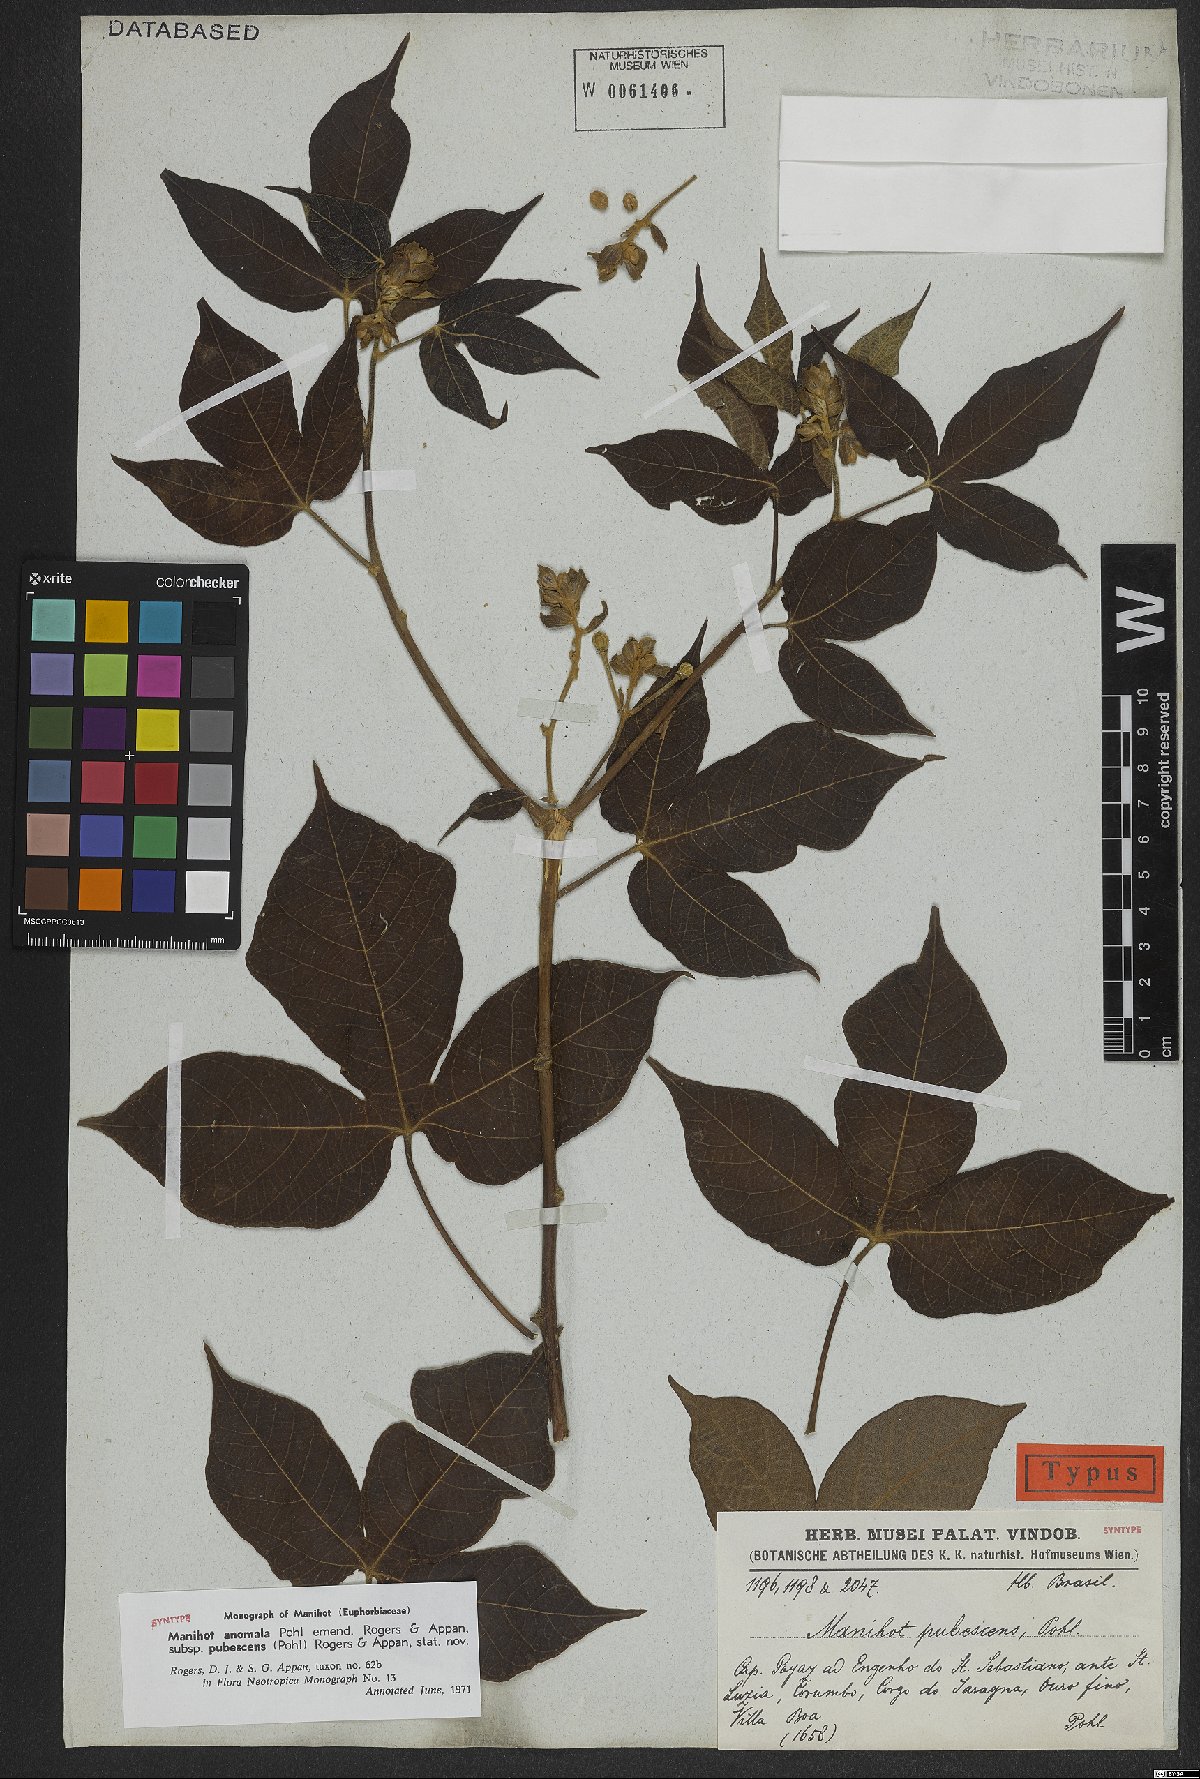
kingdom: Plantae
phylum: Tracheophyta
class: Magnoliopsida
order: Malpighiales
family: Euphorbiaceae
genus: Manihot
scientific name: Manihot anomala
